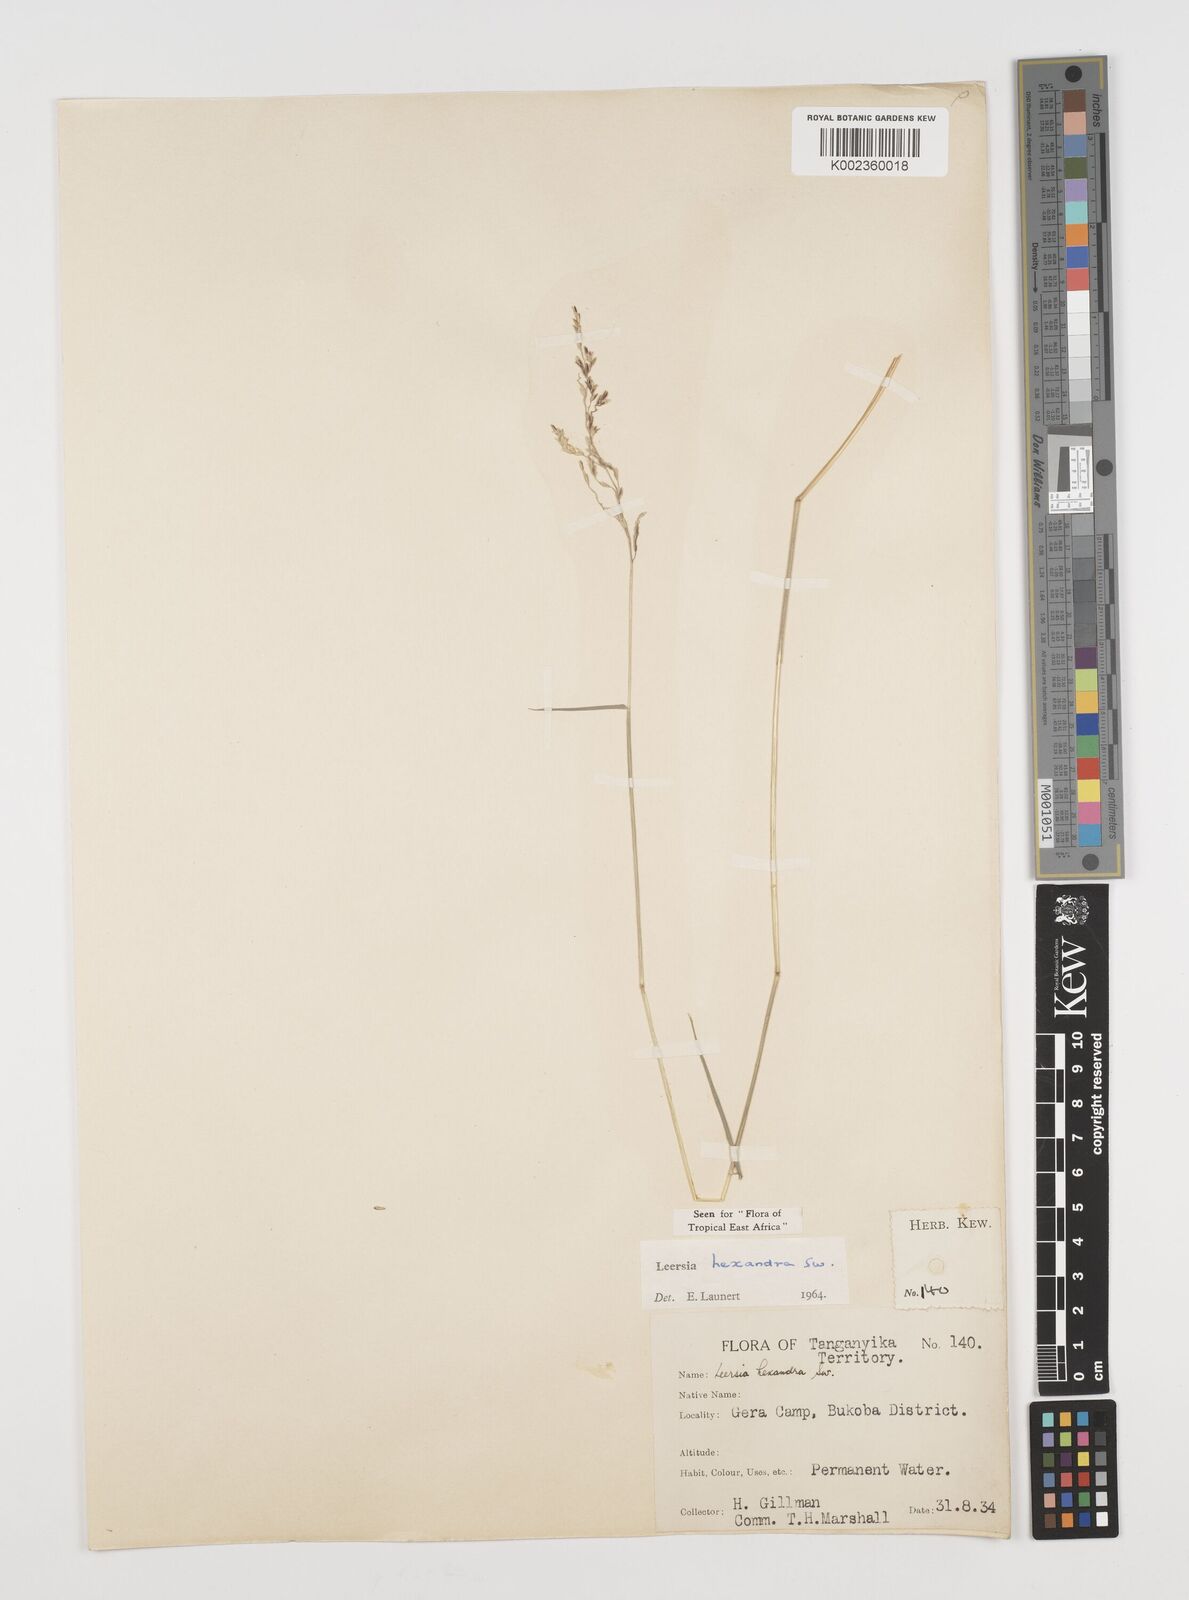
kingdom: Plantae
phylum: Tracheophyta
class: Liliopsida
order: Poales
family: Poaceae
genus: Leersia
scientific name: Leersia hexandra
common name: Southern cut grass
